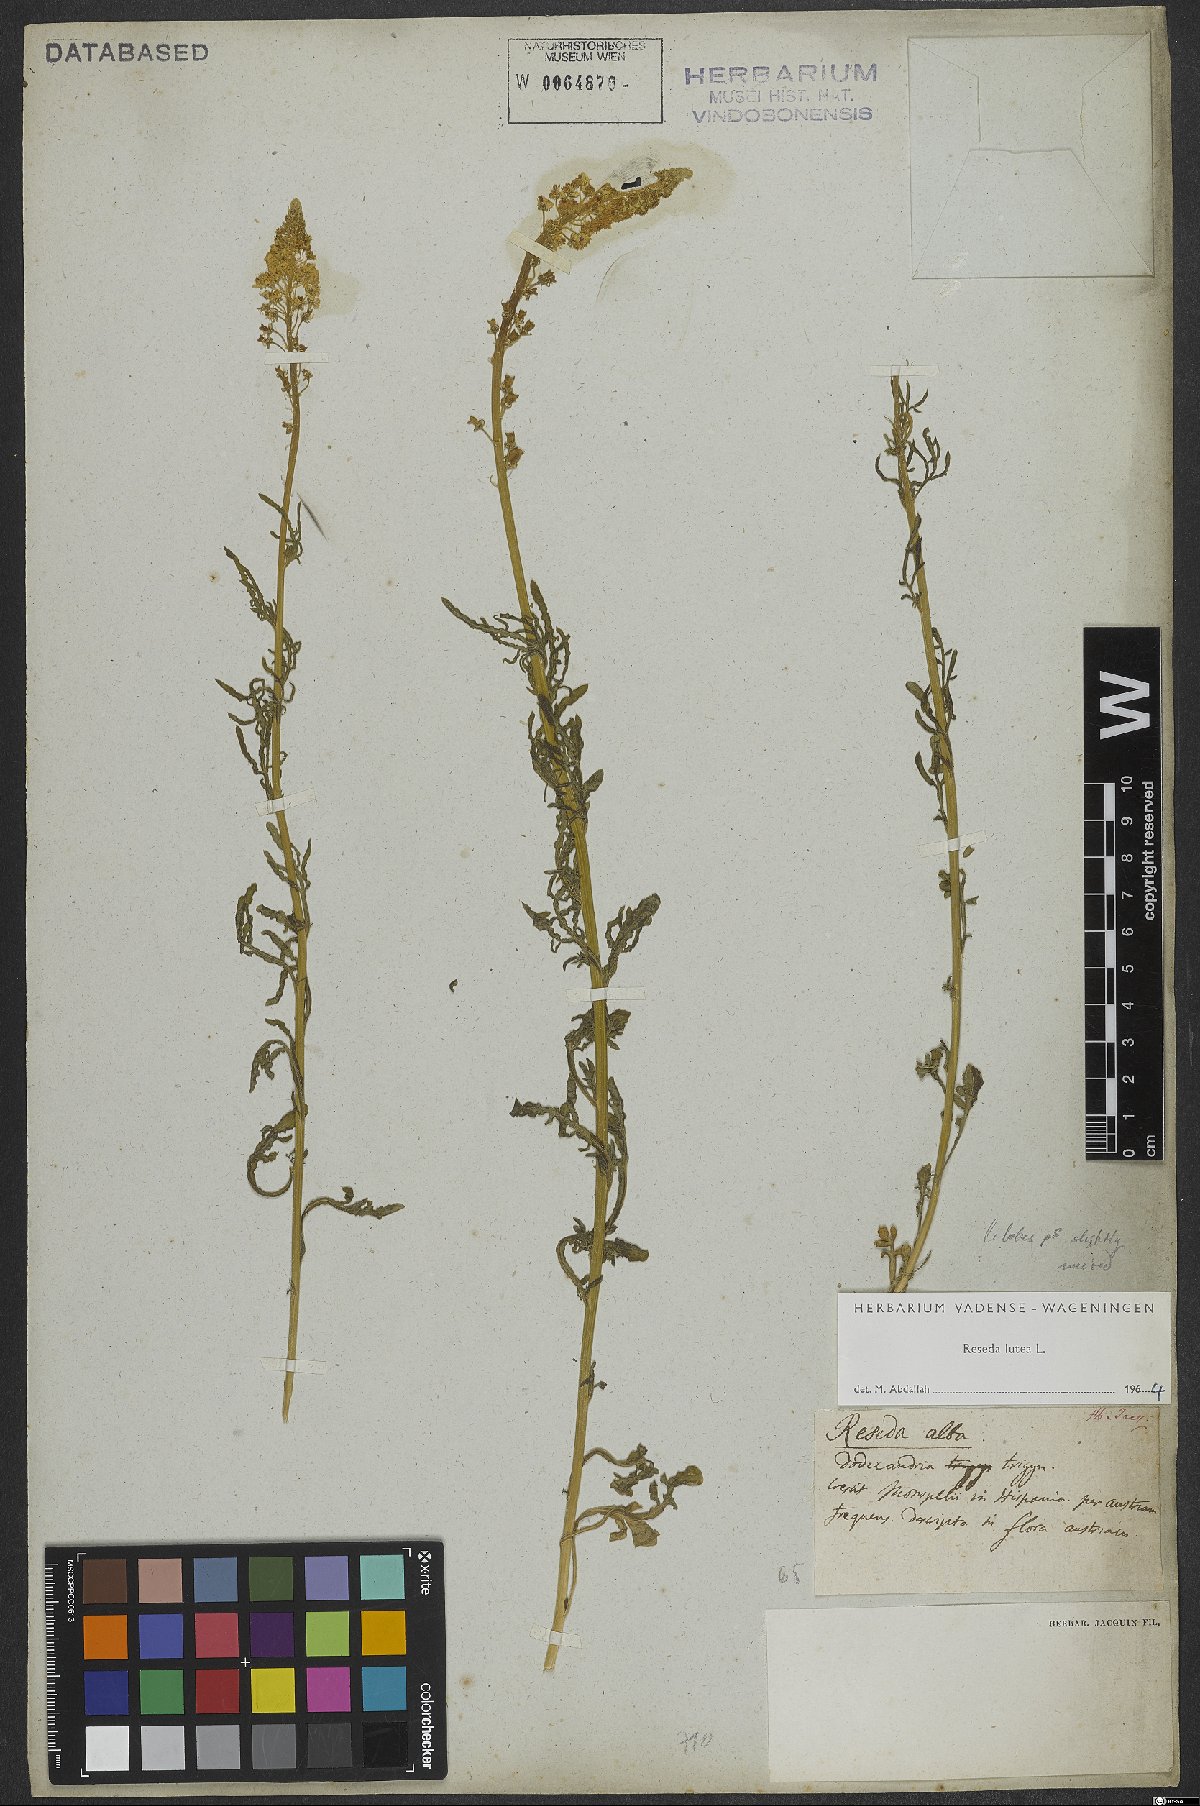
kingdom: Plantae
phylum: Tracheophyta
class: Magnoliopsida
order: Brassicales
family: Resedaceae
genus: Reseda
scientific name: Reseda lutea
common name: Wild mignonette
